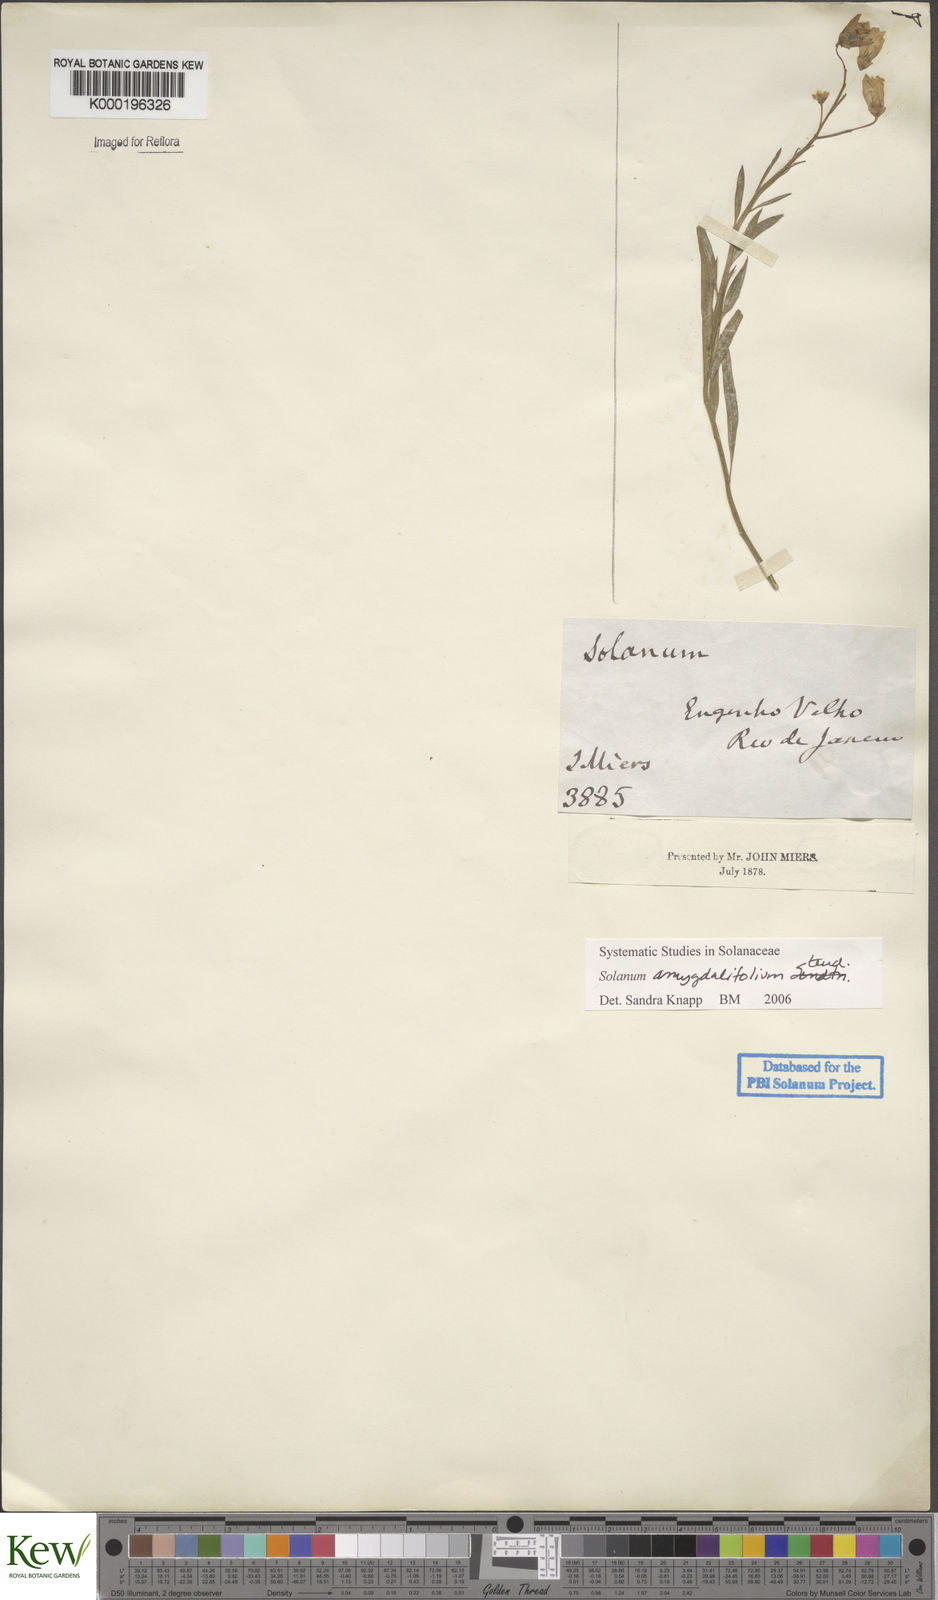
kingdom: Plantae
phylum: Tracheophyta
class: Magnoliopsida
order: Solanales
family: Solanaceae
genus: Solanum
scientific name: Solanum amygdalifolium
